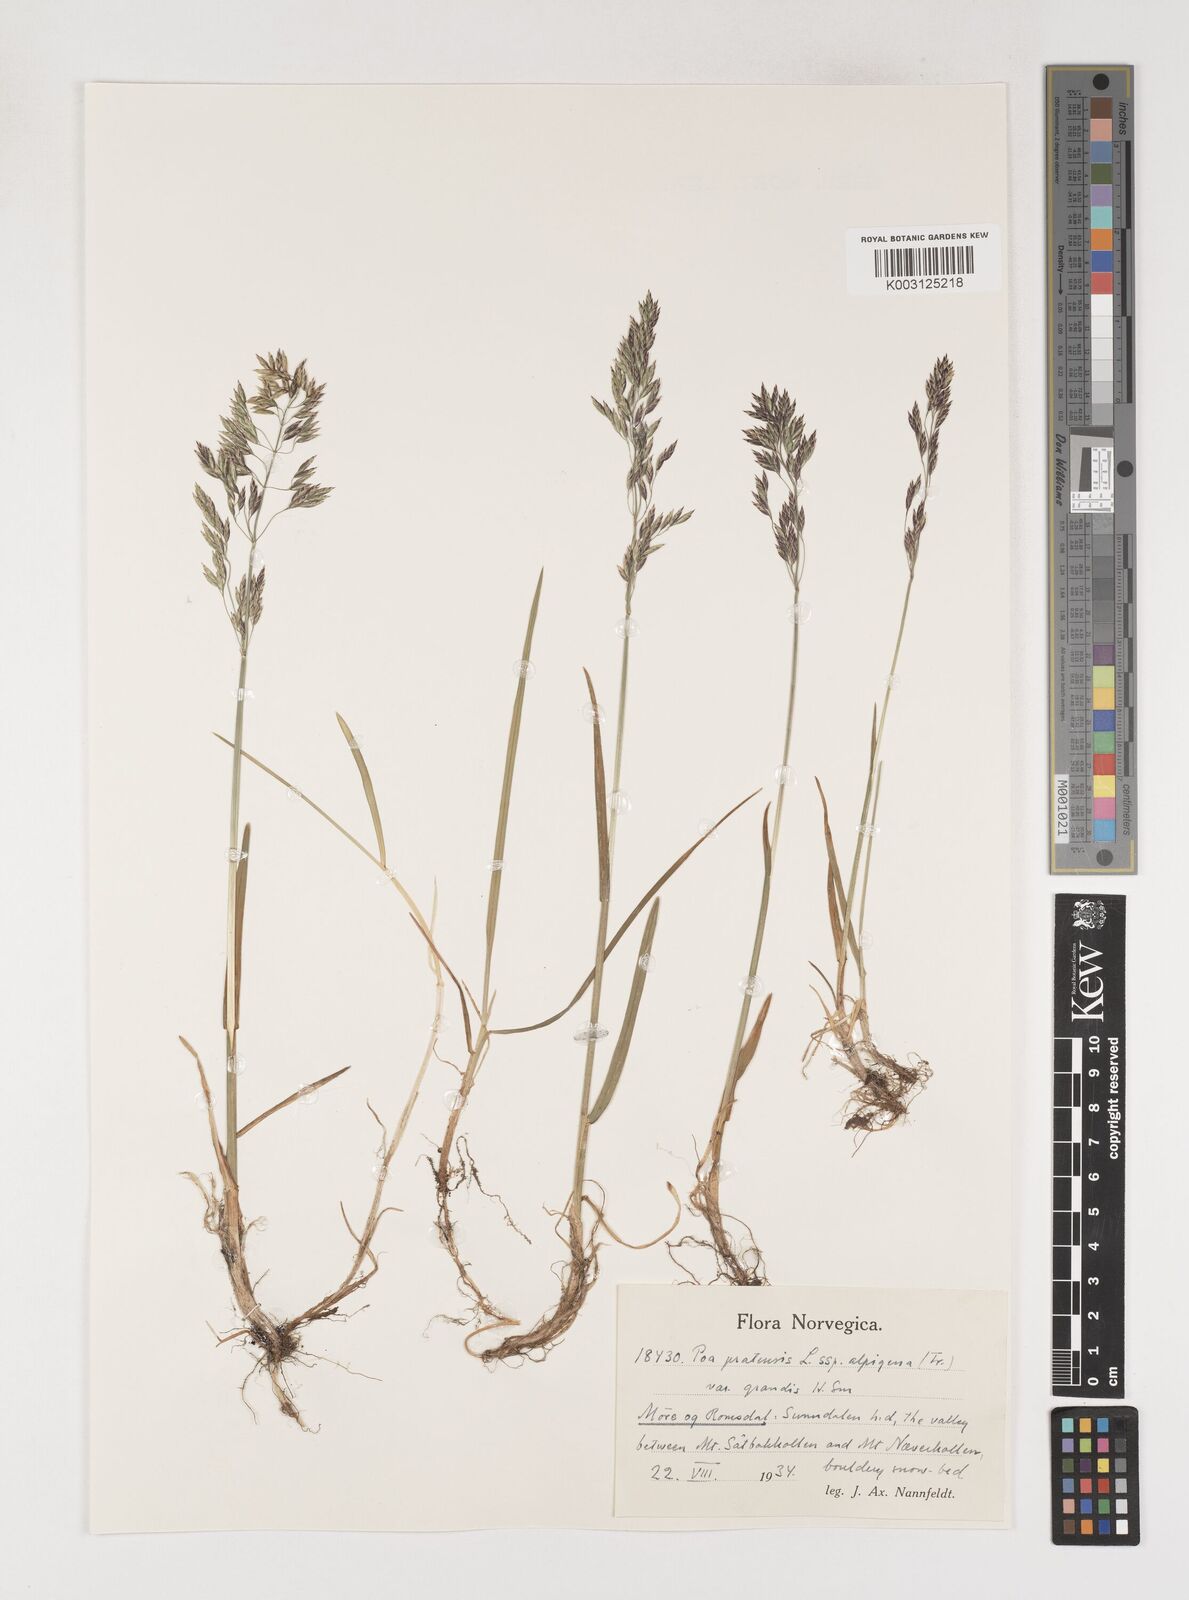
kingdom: Plantae
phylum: Tracheophyta
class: Liliopsida
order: Poales
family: Poaceae
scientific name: Poaceae
